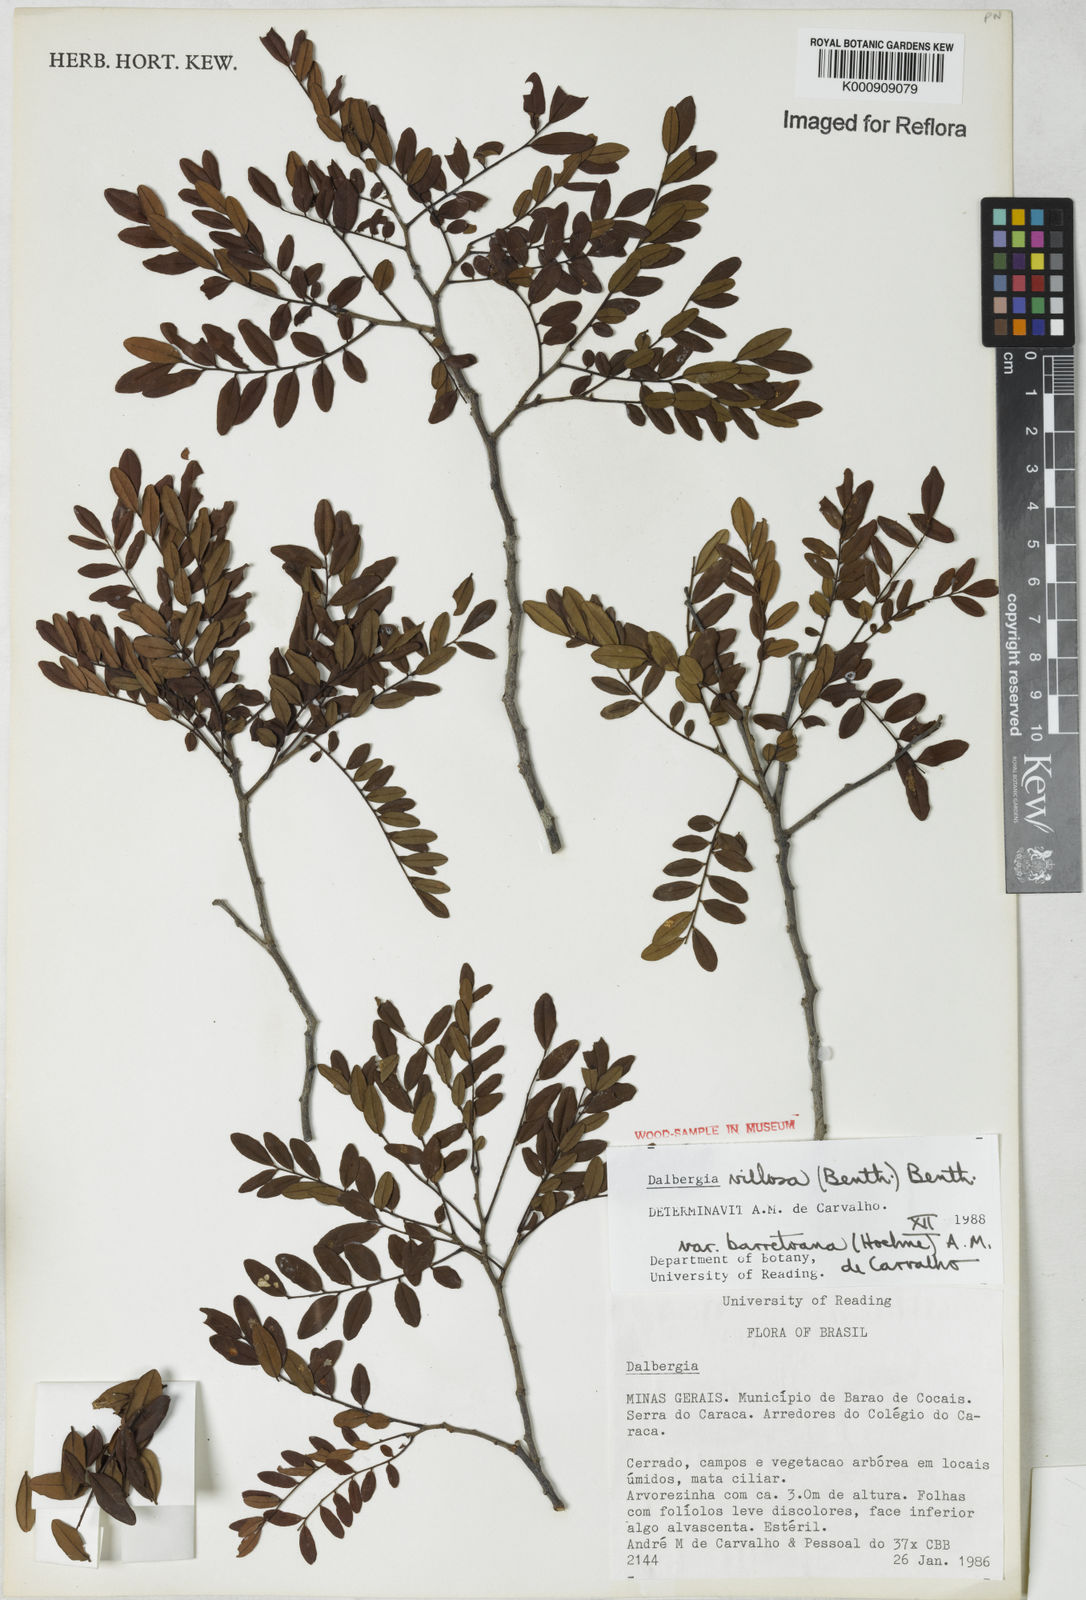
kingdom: Plantae
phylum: Tracheophyta
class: Magnoliopsida
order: Fabales
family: Fabaceae
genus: Dalbergia
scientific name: Dalbergia villosa
